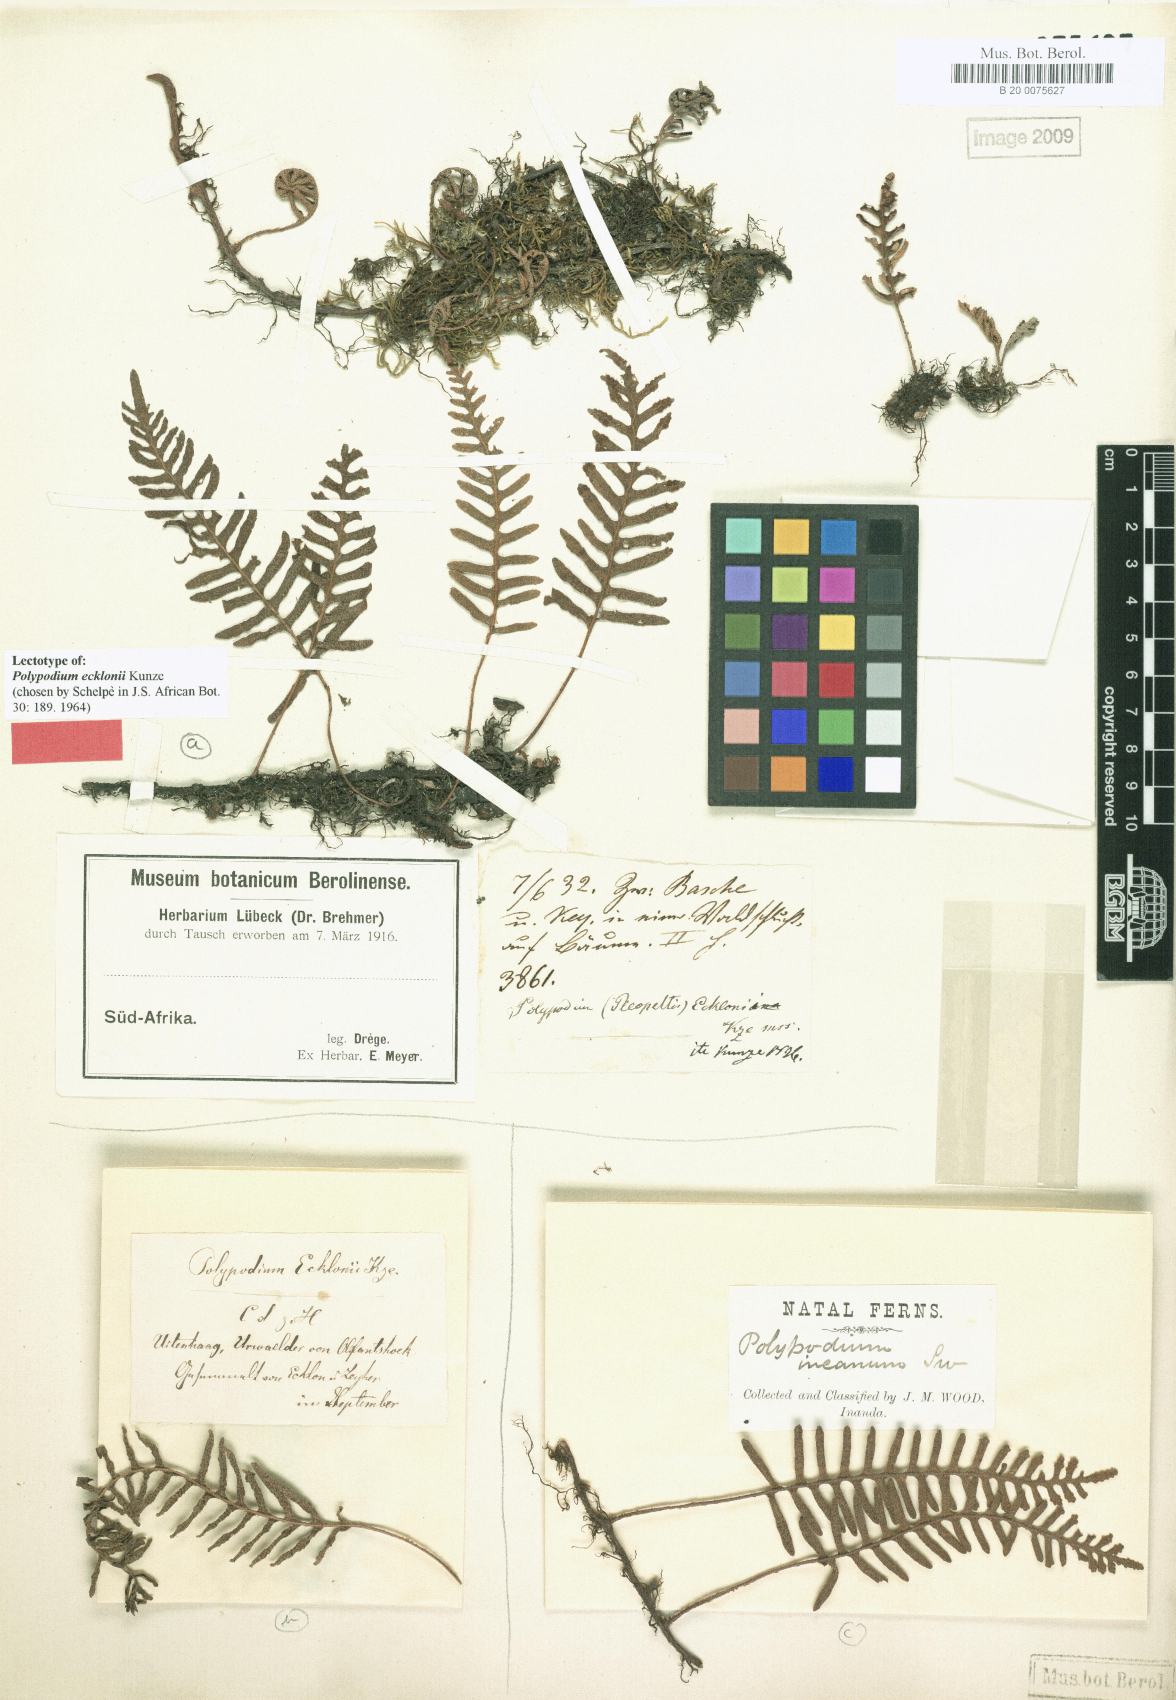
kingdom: Plantae
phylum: Tracheophyta
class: Polypodiopsida
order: Polypodiales
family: Polypodiaceae
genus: Pleopeltis
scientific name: Pleopeltis ecklonii
